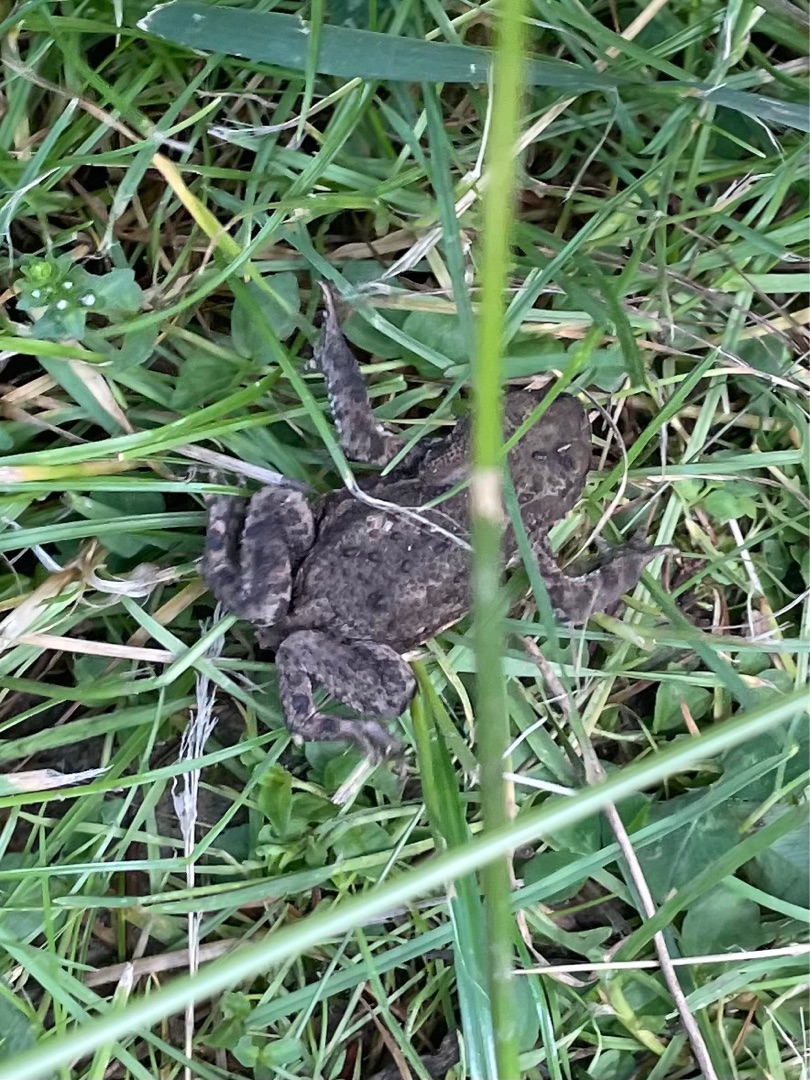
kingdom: Animalia
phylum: Chordata
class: Amphibia
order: Anura
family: Bufonidae
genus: Bufo
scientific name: Bufo bufo
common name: Skrubtudse
